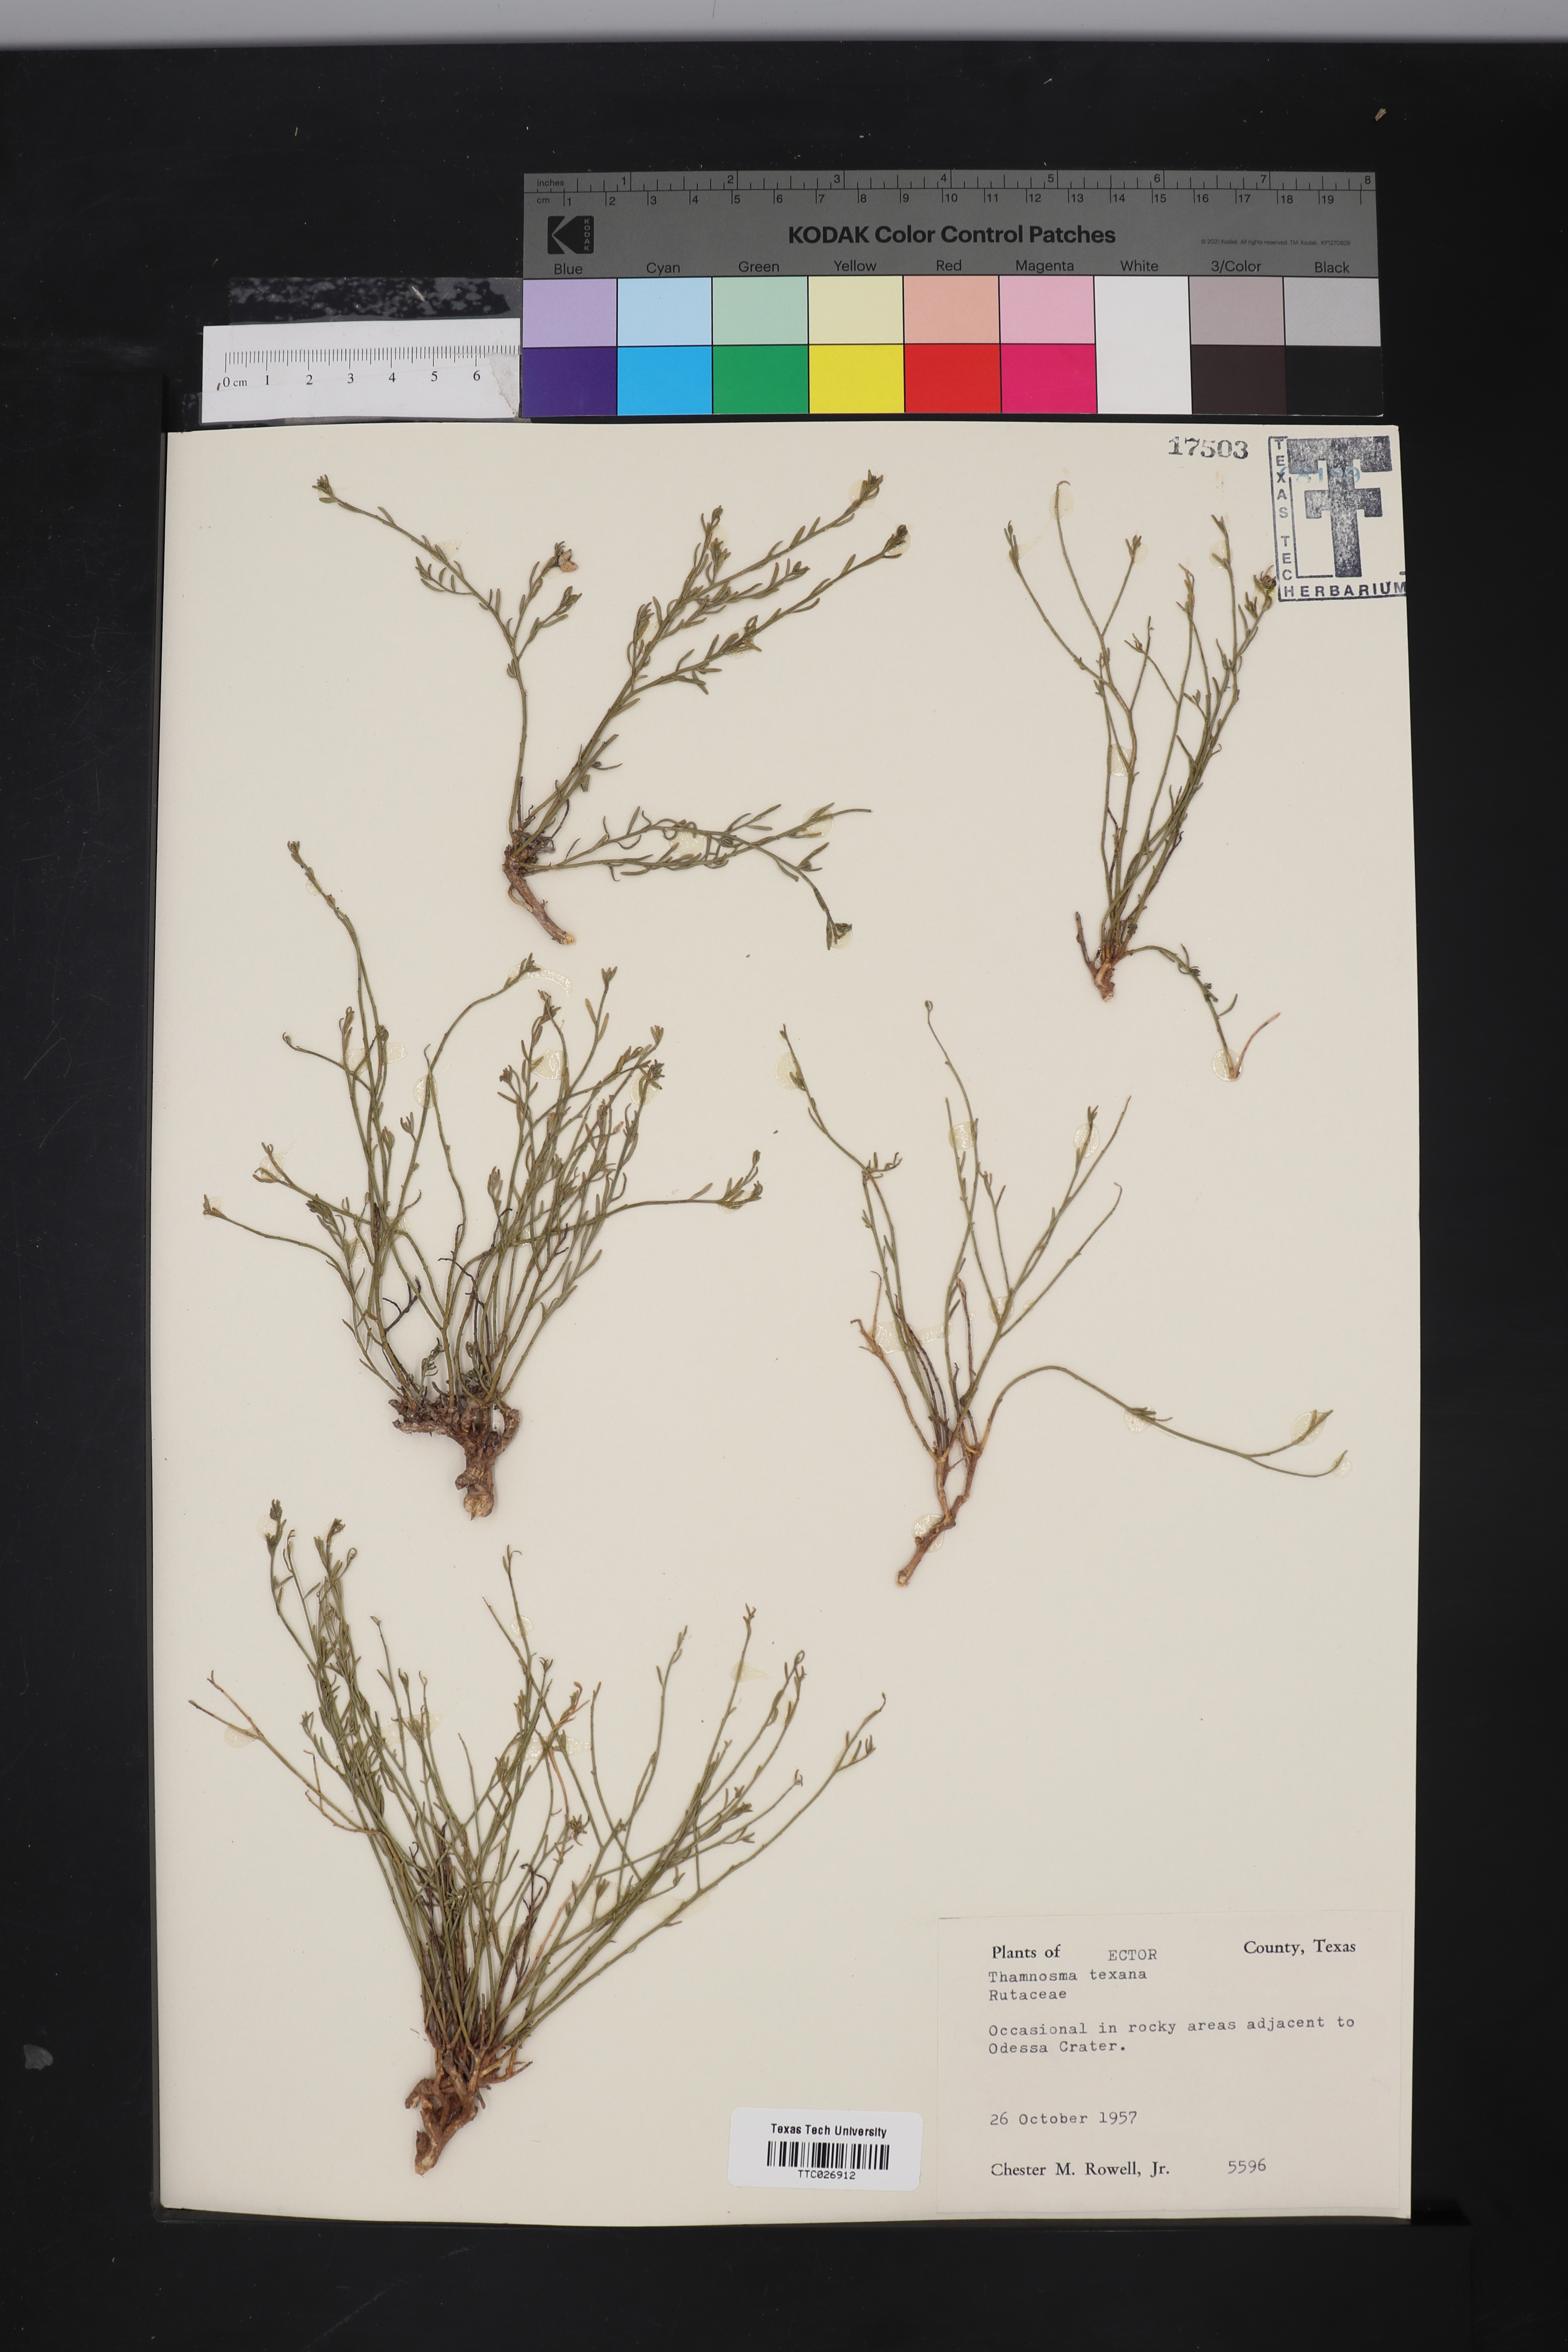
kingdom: Plantae
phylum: Tracheophyta
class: Magnoliopsida
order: Sapindales
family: Rutaceae
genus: Thamnosma
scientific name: Thamnosma texana
